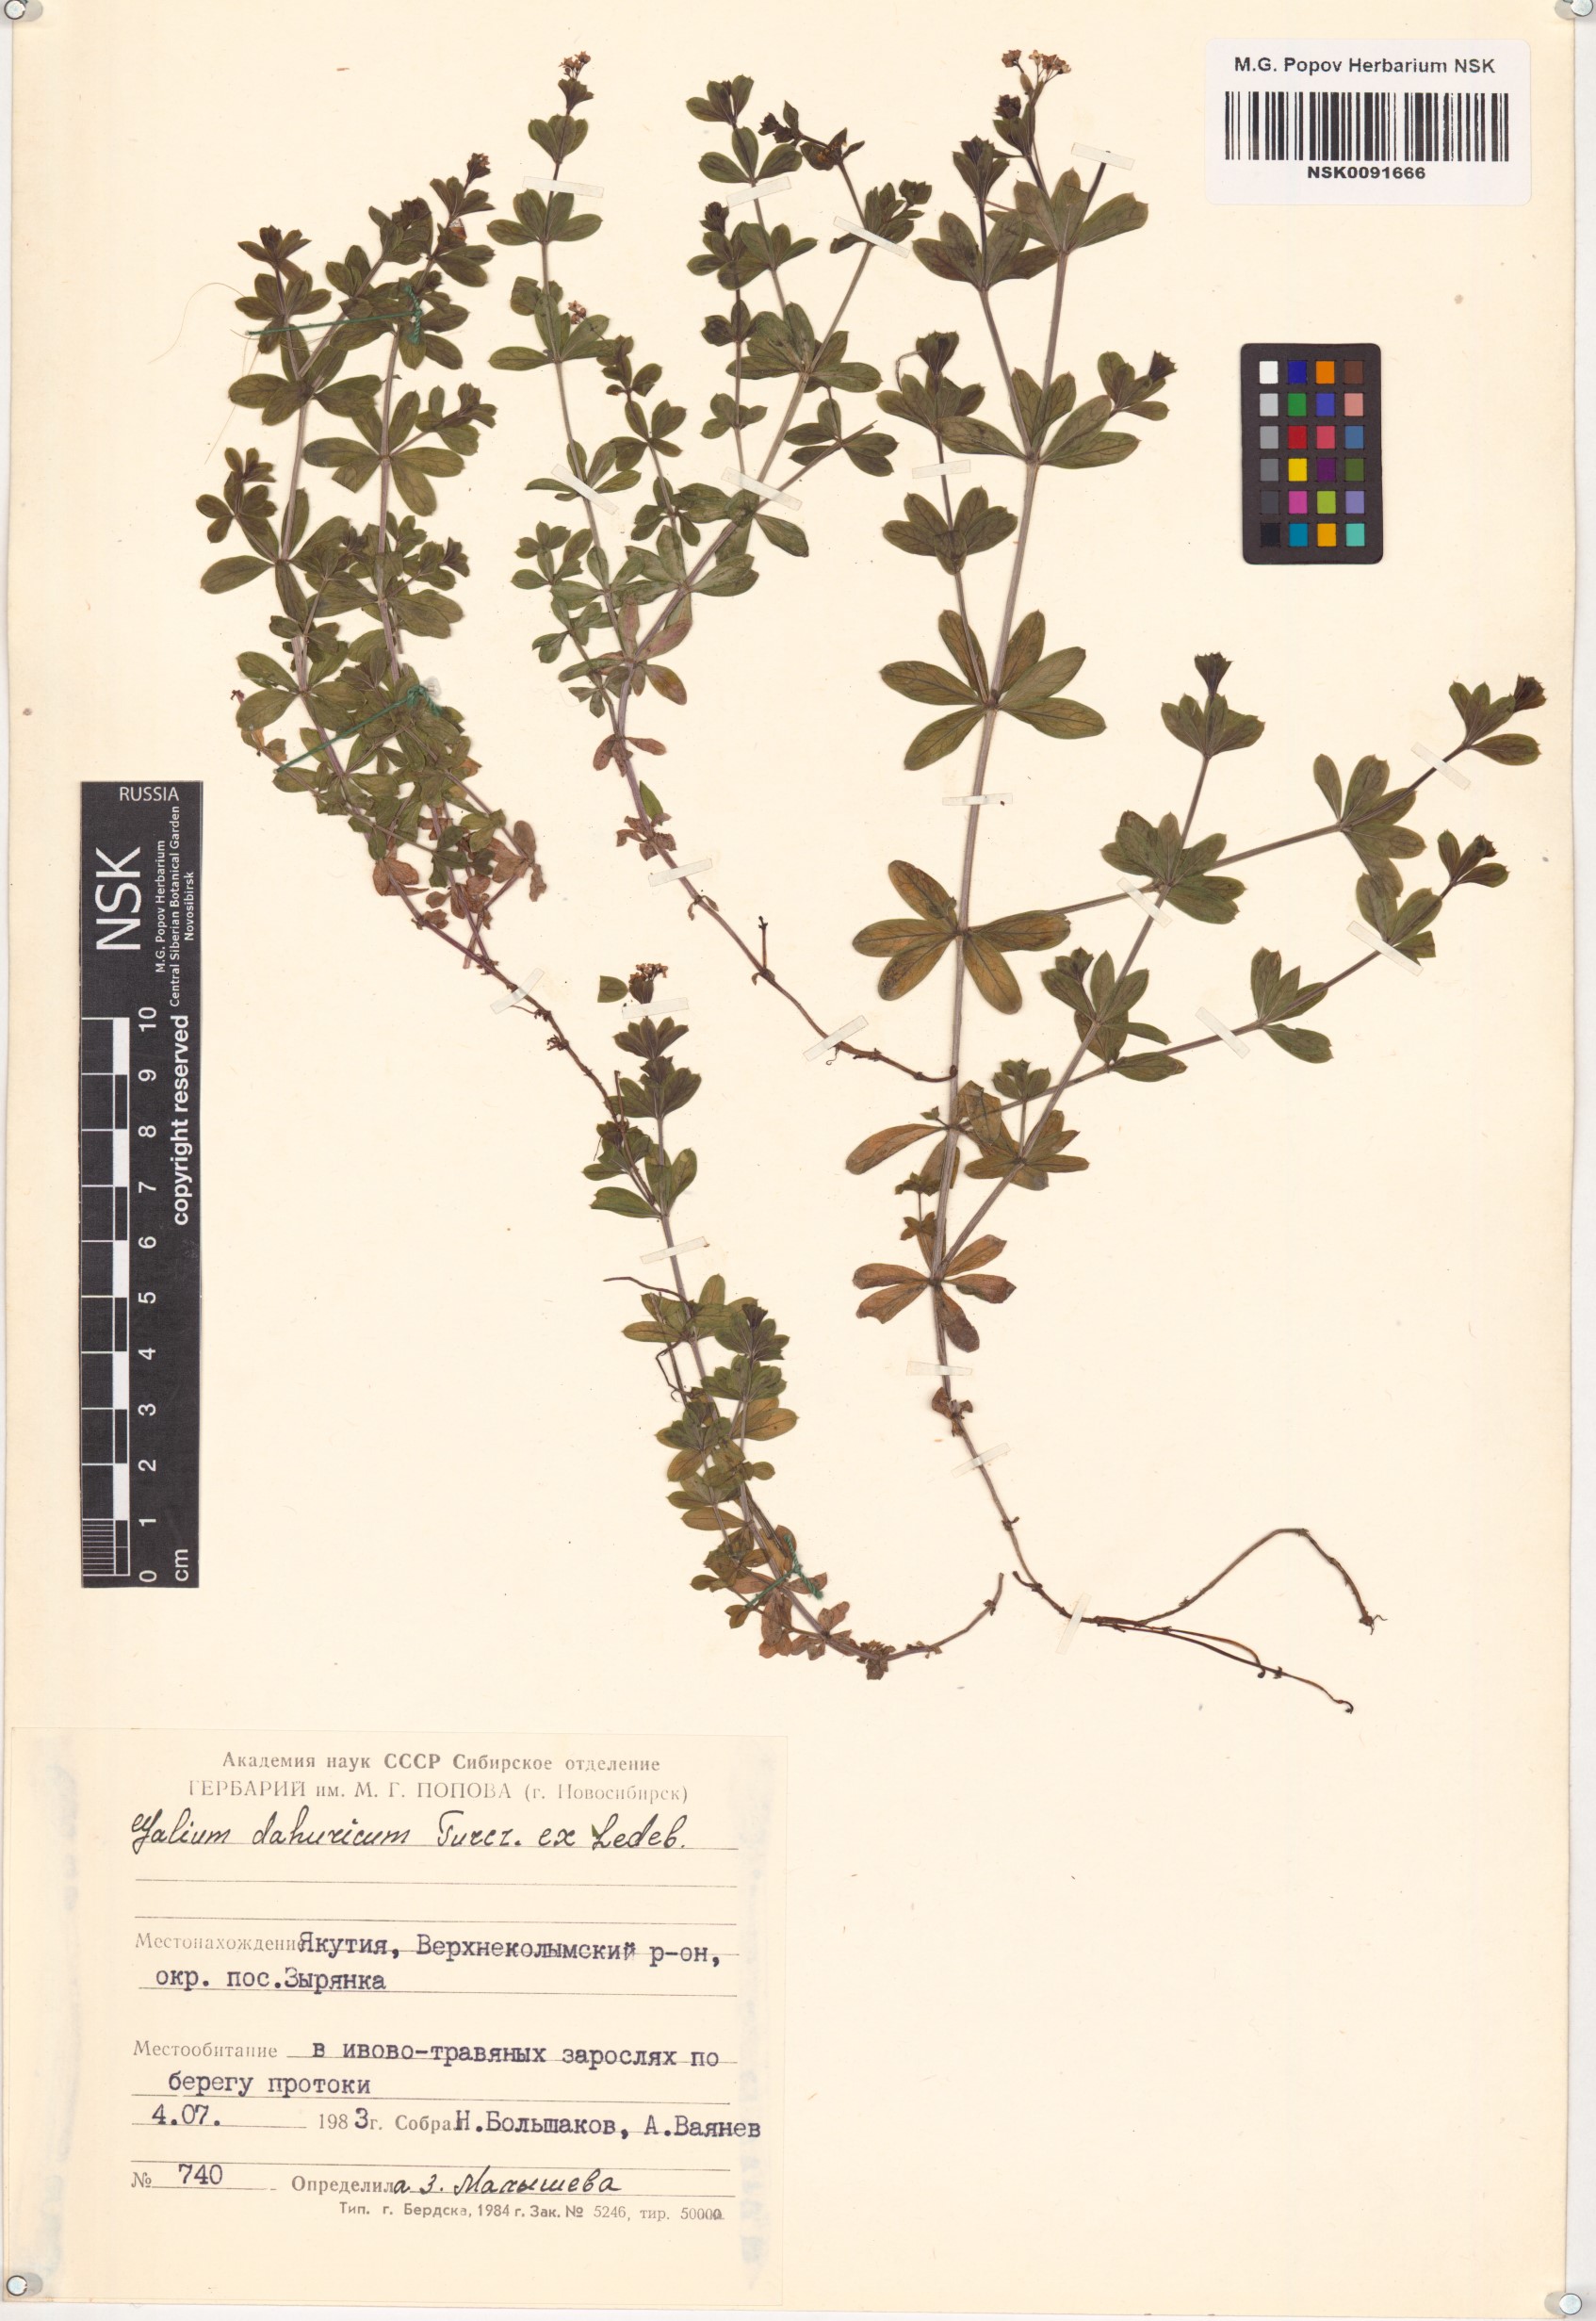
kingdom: Plantae
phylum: Tracheophyta
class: Magnoliopsida
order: Gentianales
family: Rubiaceae
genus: Galium
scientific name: Galium dahuricum
